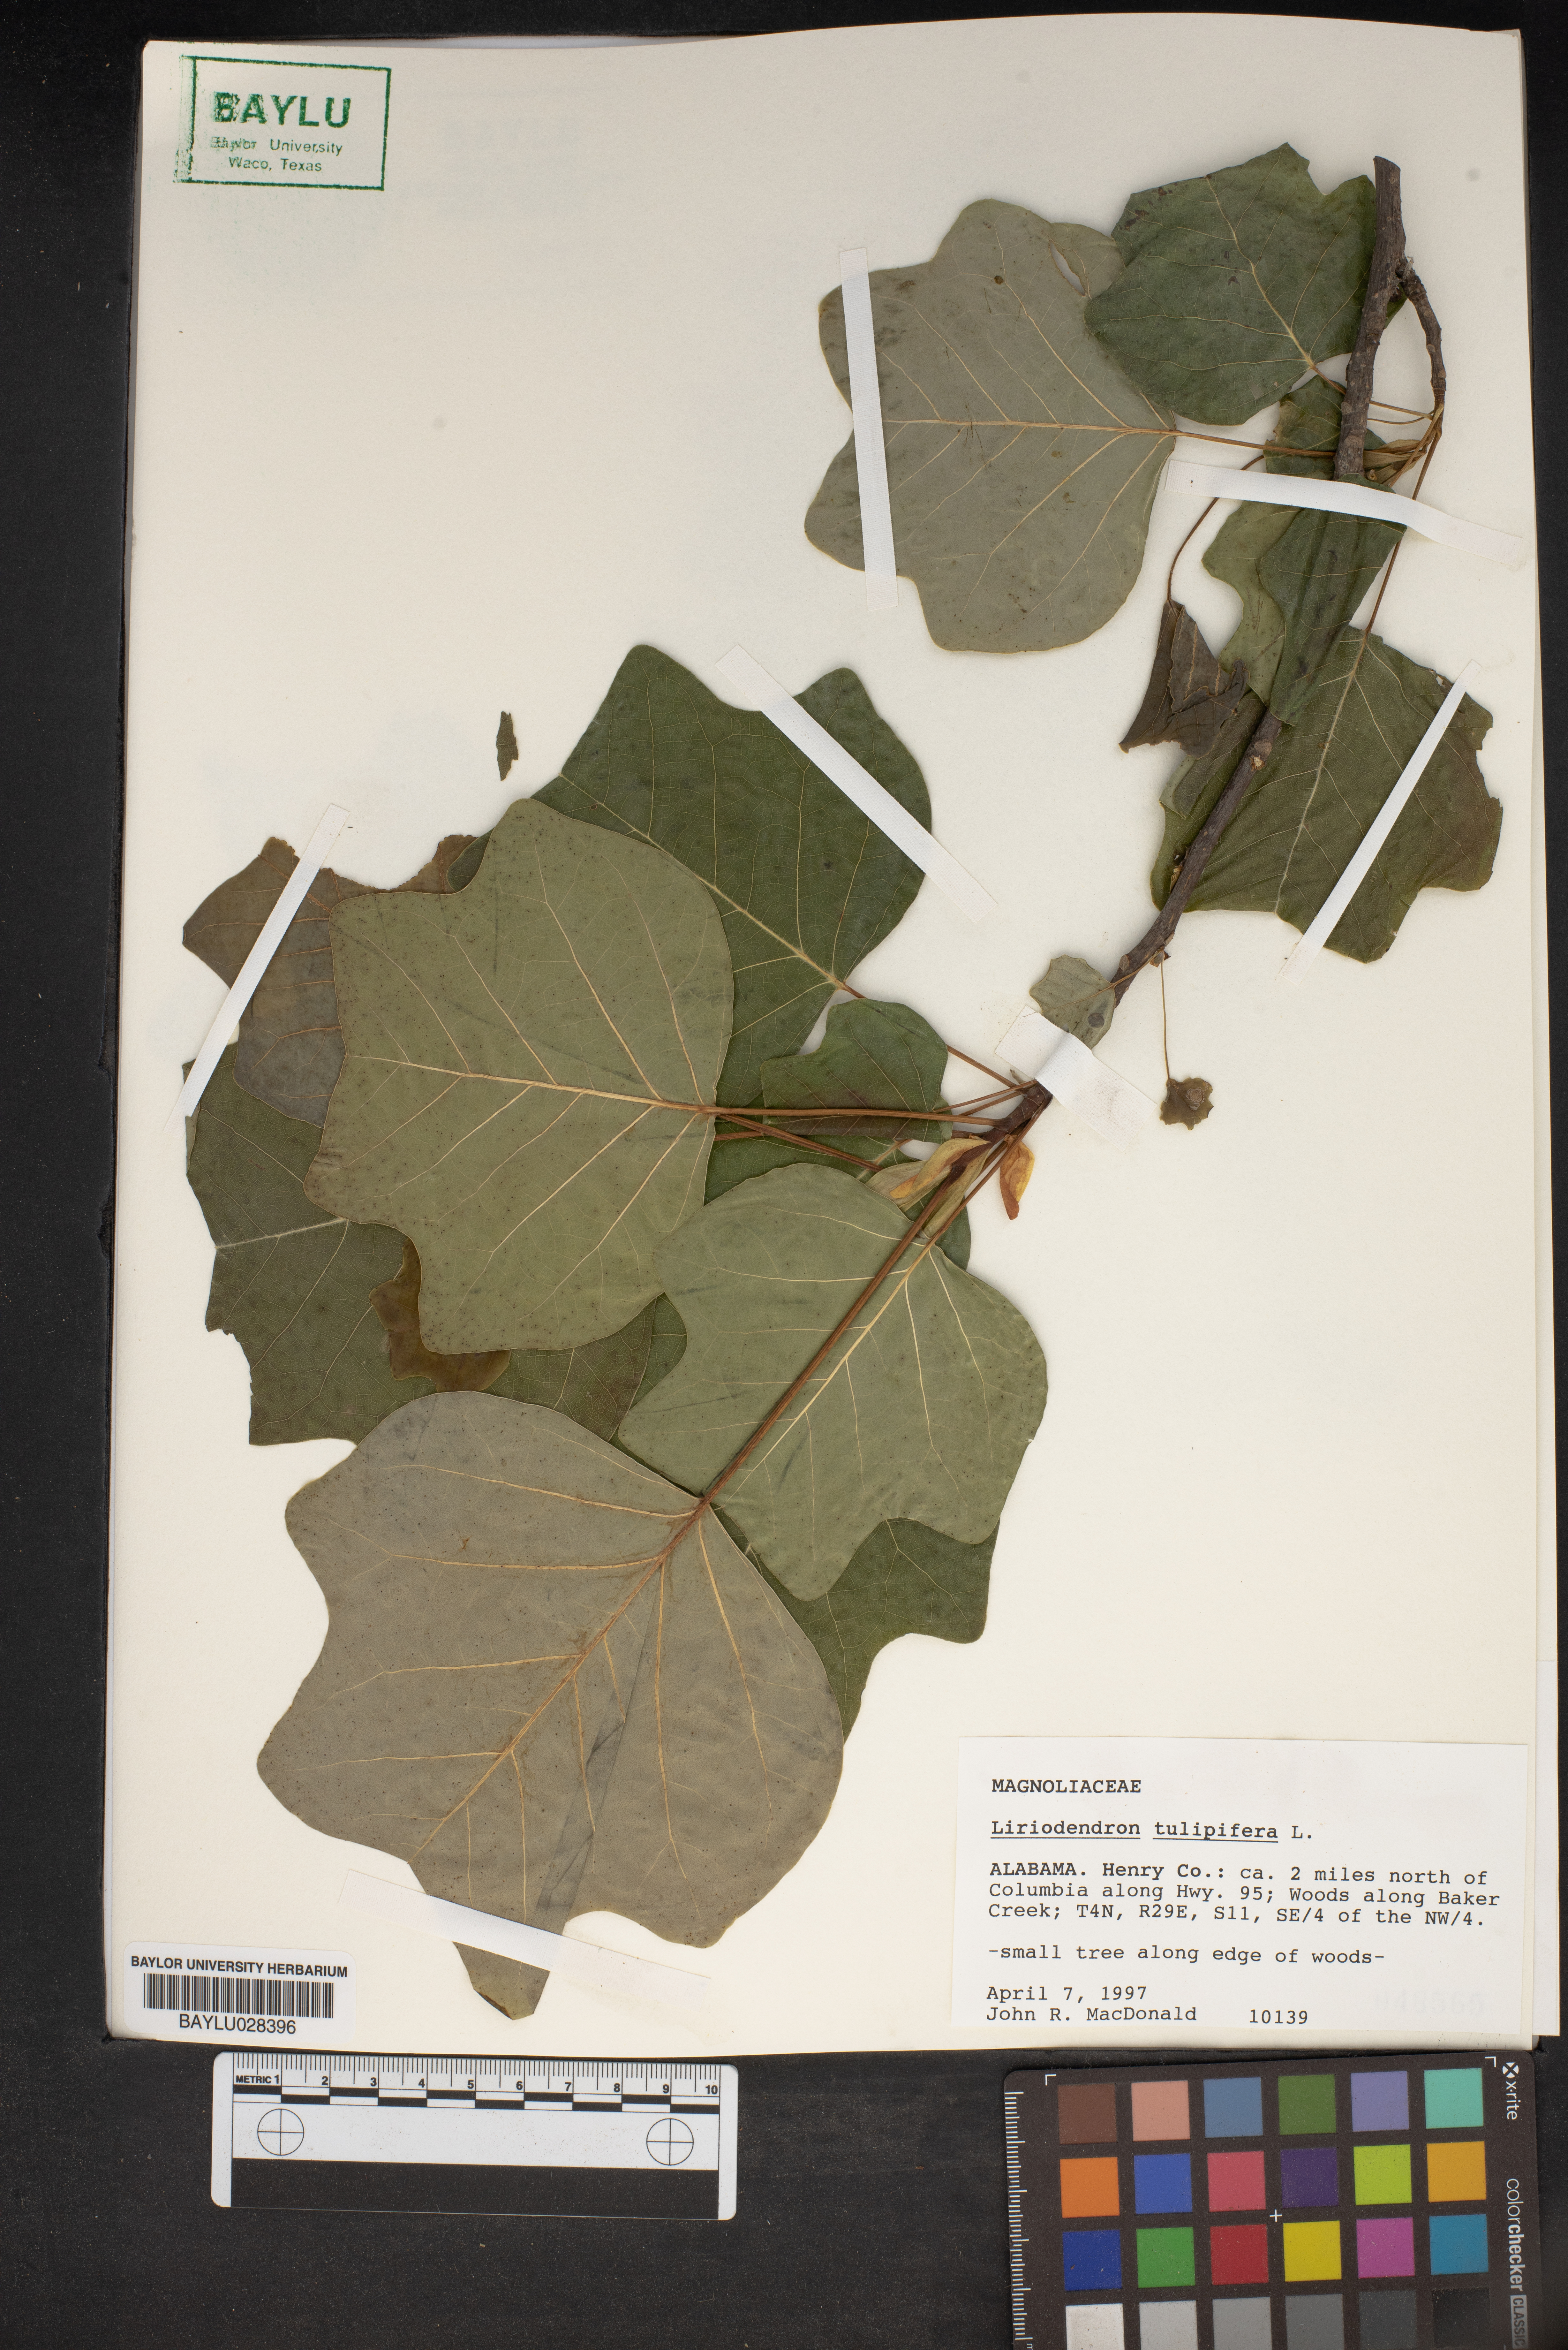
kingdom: Plantae
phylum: Tracheophyta
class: Magnoliopsida
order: Magnoliales
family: Magnoliaceae
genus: Liriodendron
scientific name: Liriodendron tulipifera
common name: Tulip tree
